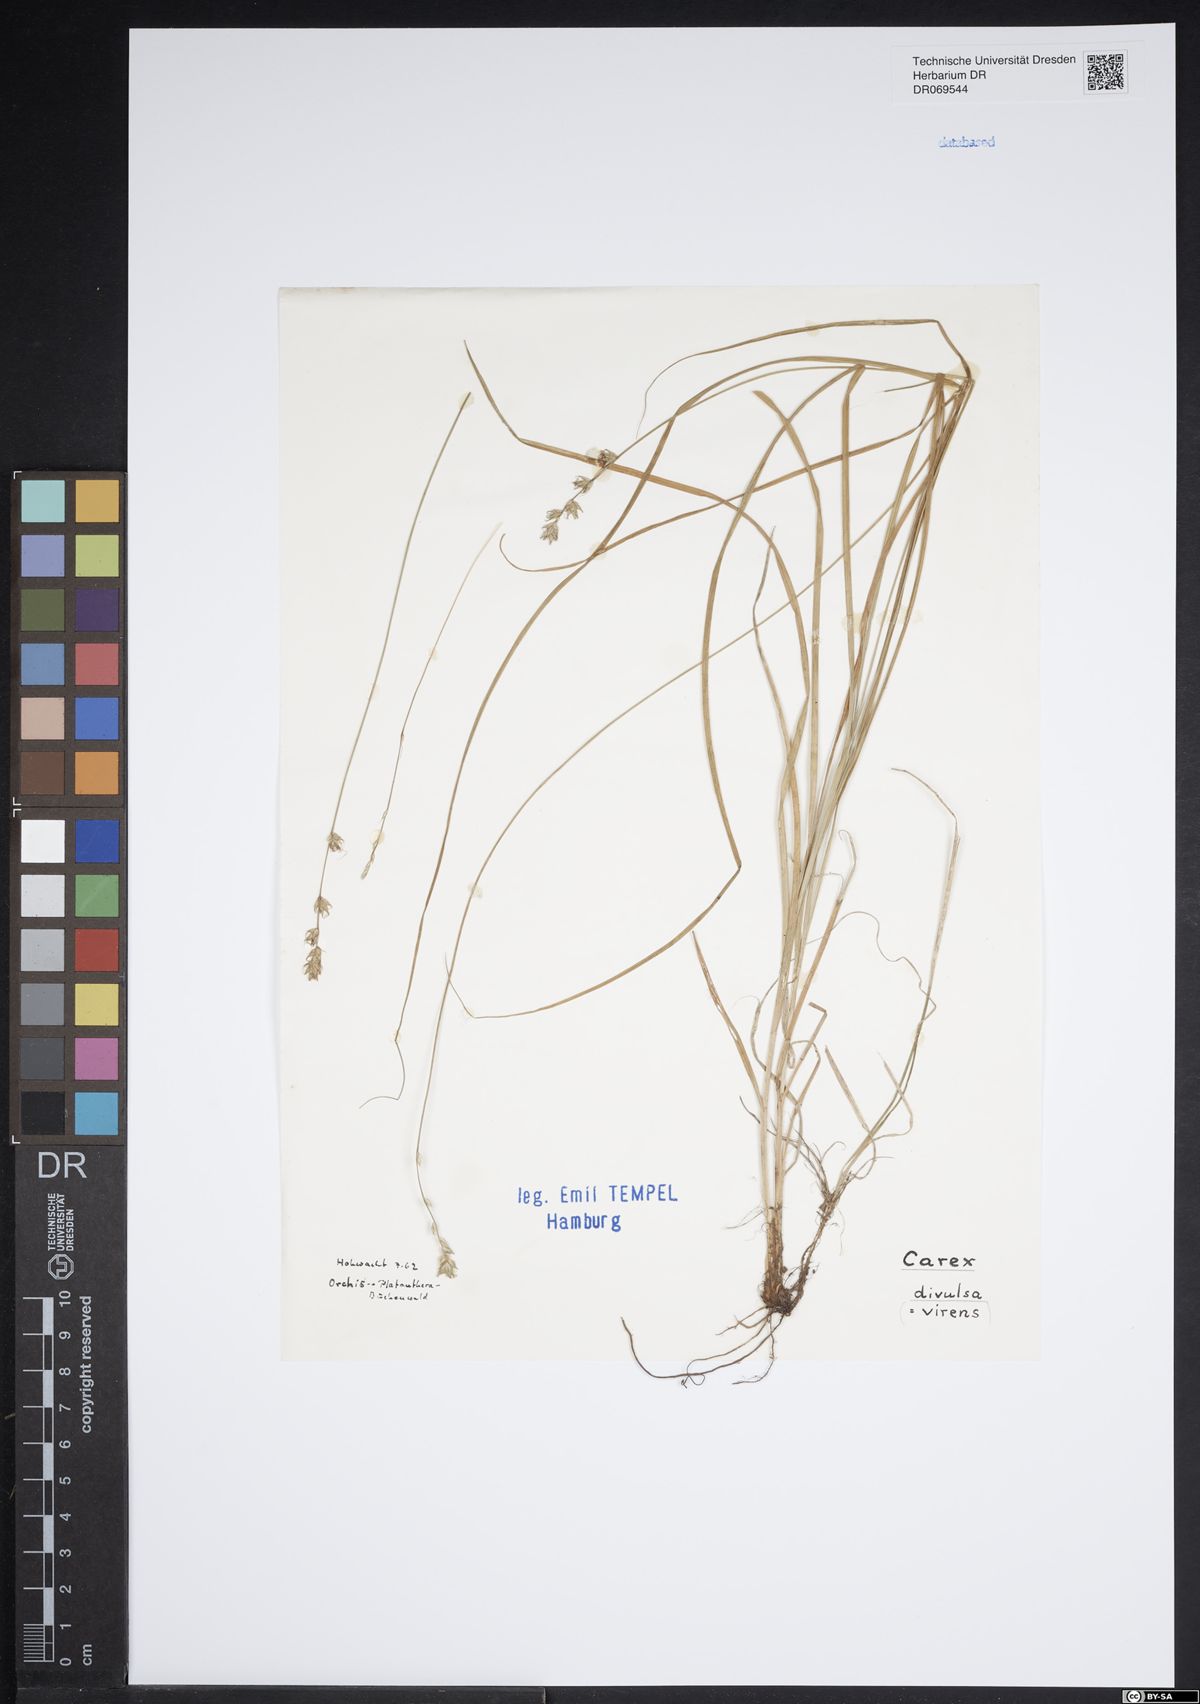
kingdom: Plantae
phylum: Tracheophyta
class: Liliopsida
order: Poales
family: Cyperaceae
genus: Carex
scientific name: Carex divulsa
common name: Grassland sedge
